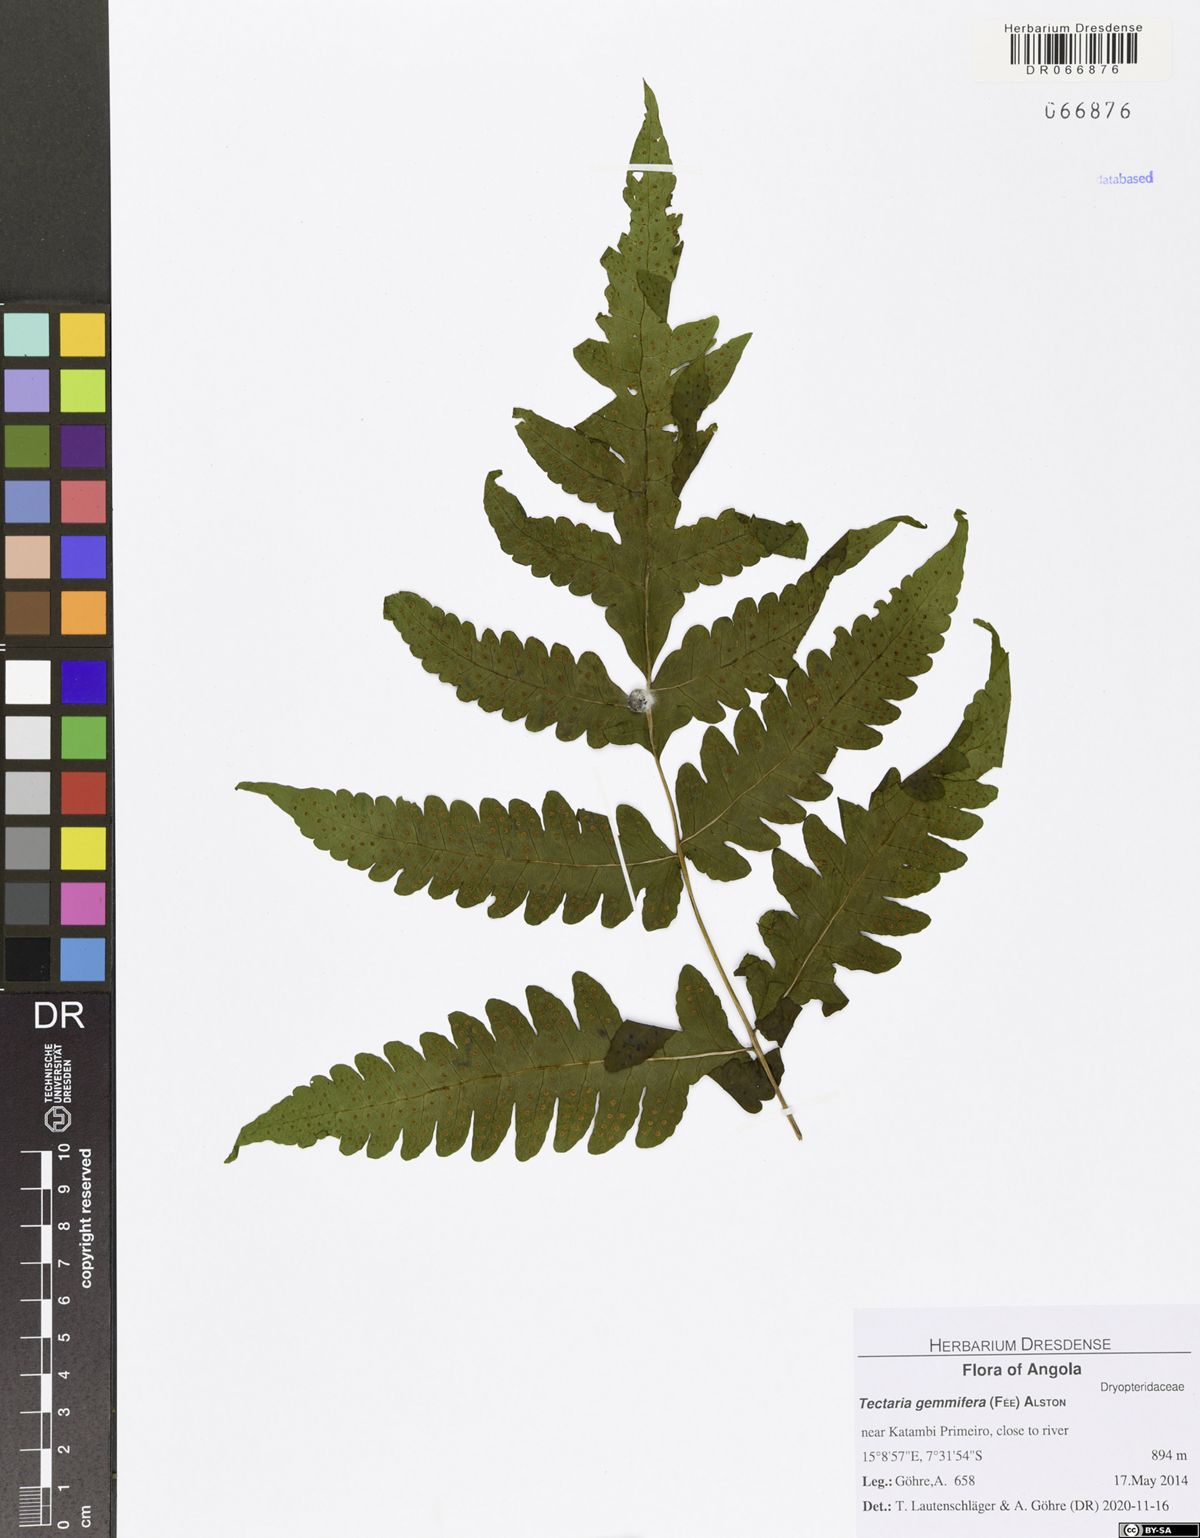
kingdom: Plantae
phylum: Tracheophyta
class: Polypodiopsida
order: Polypodiales
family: Tectariaceae
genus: Tectaria
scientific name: Tectaria gemmifera
